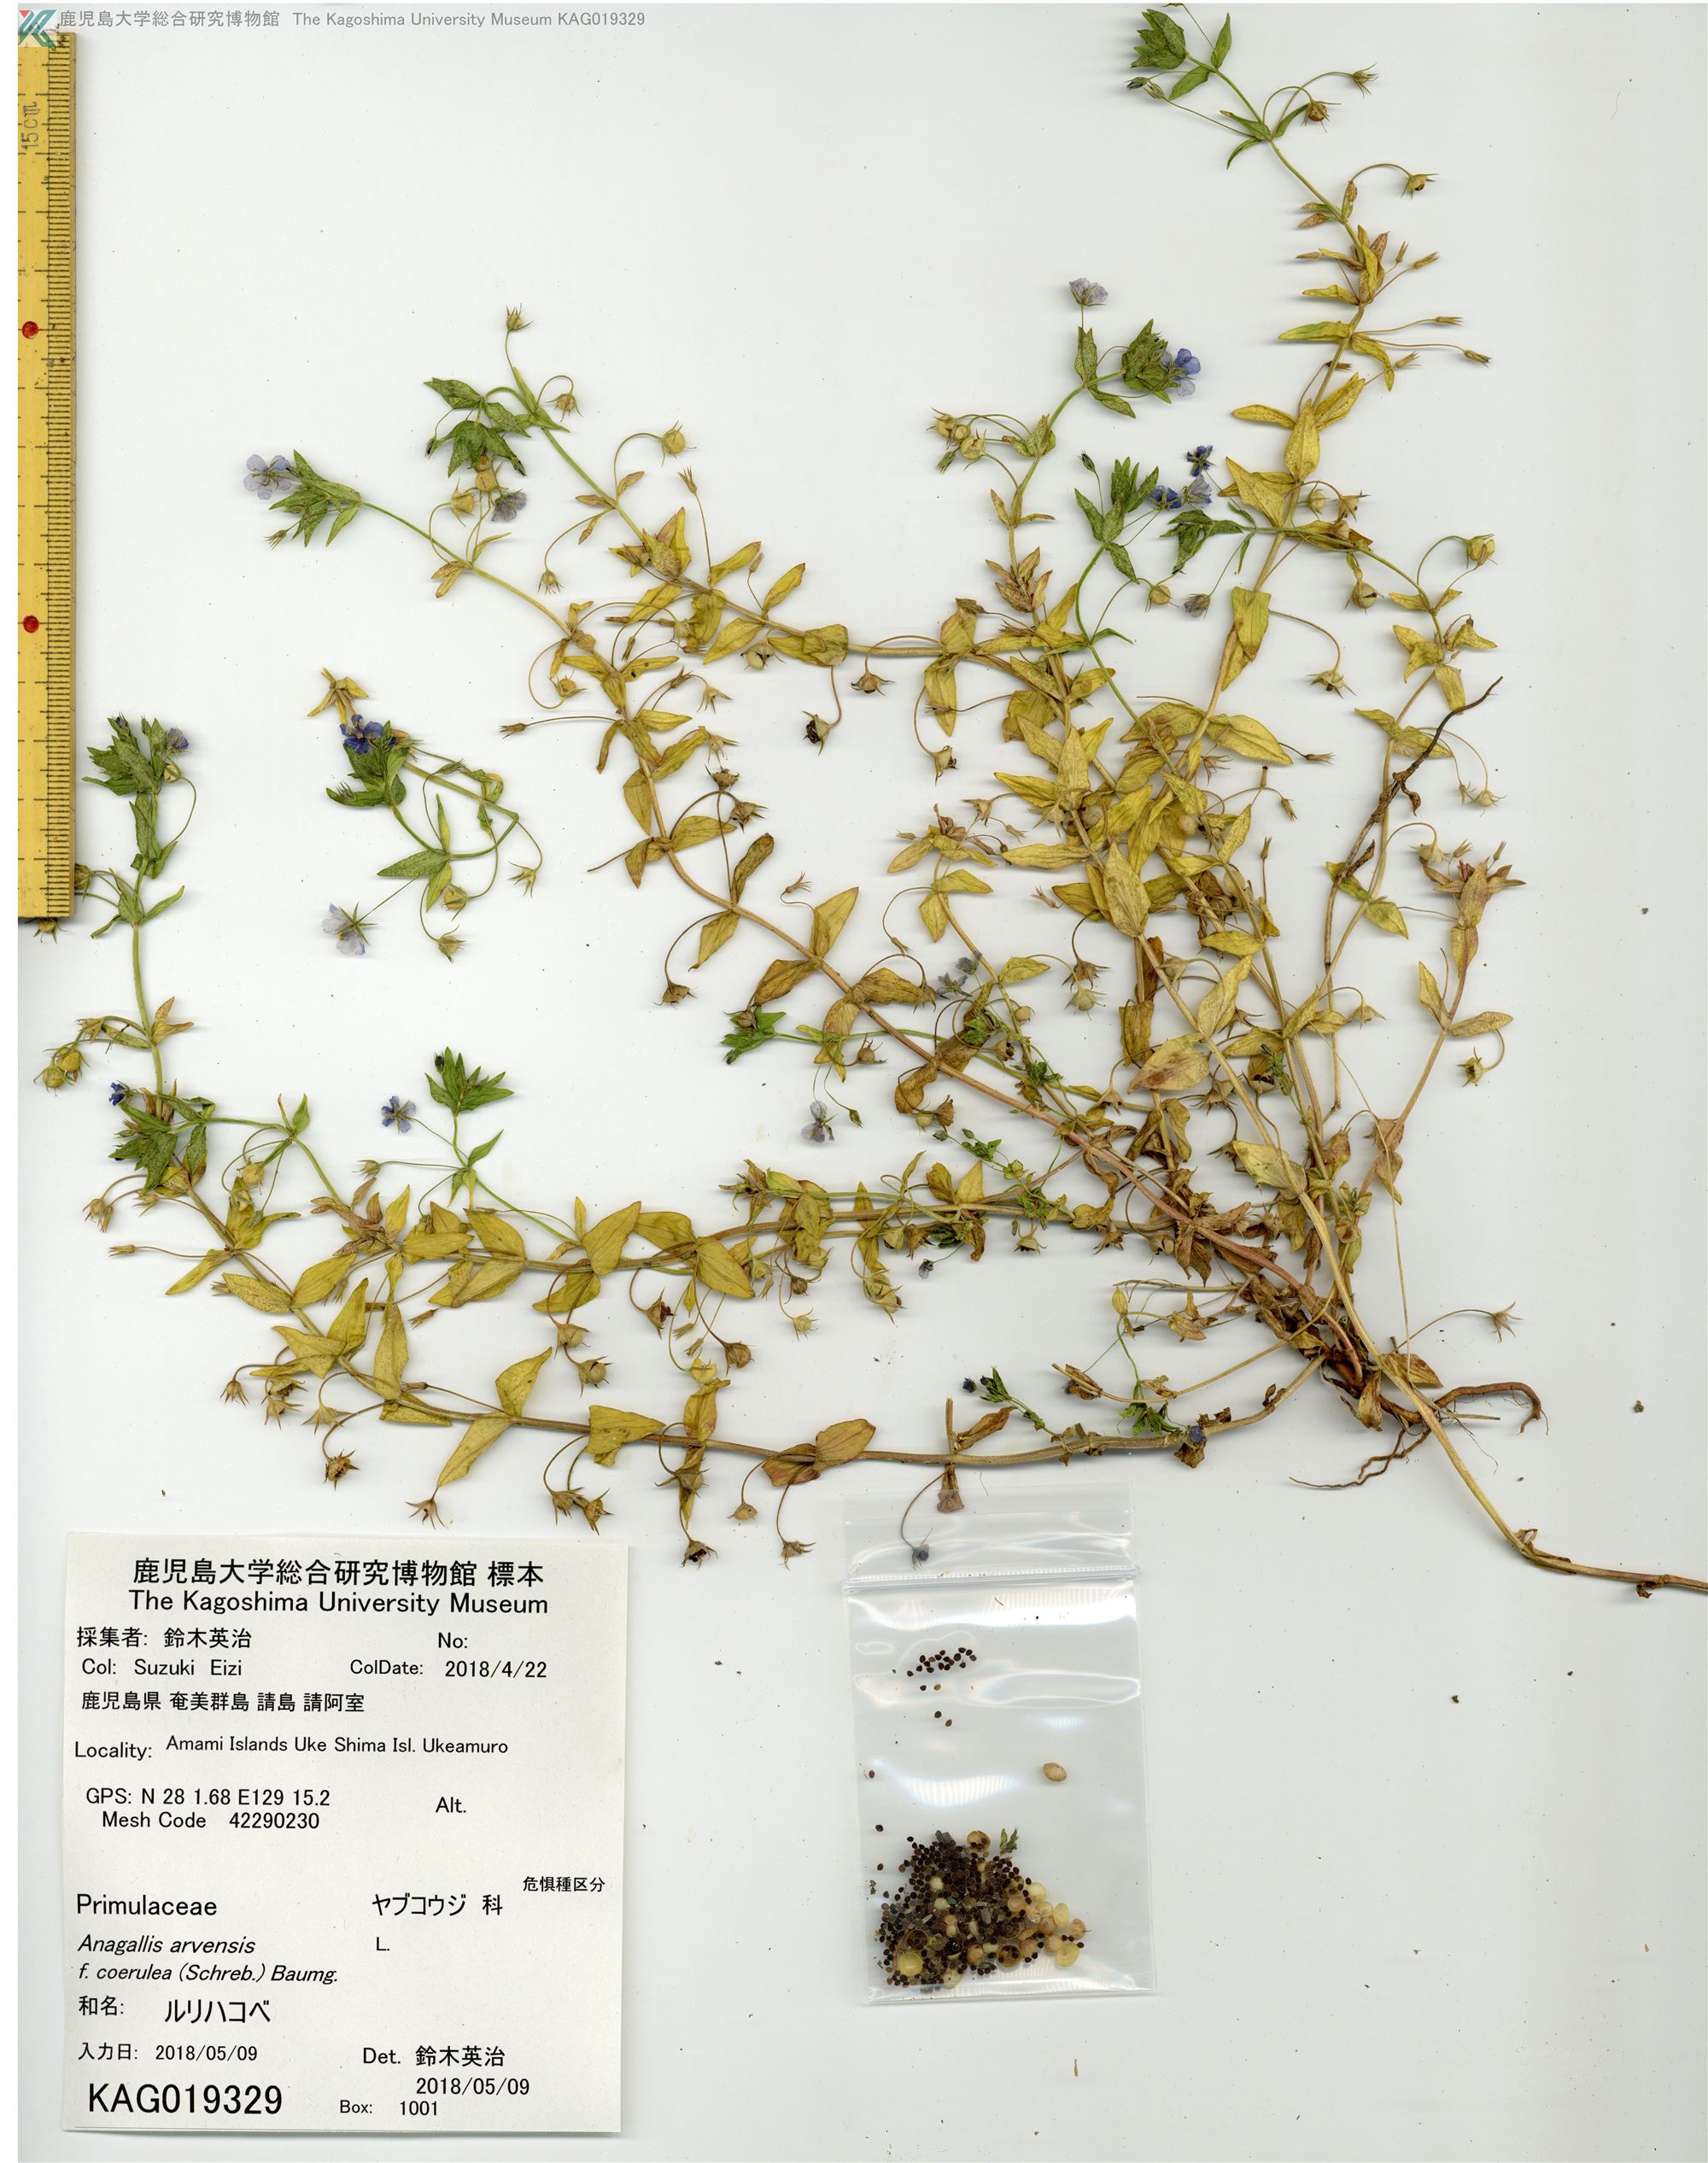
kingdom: Plantae
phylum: Tracheophyta
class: Magnoliopsida
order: Ericales
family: Primulaceae
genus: Lysimachia
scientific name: Lysimachia loeflingii
